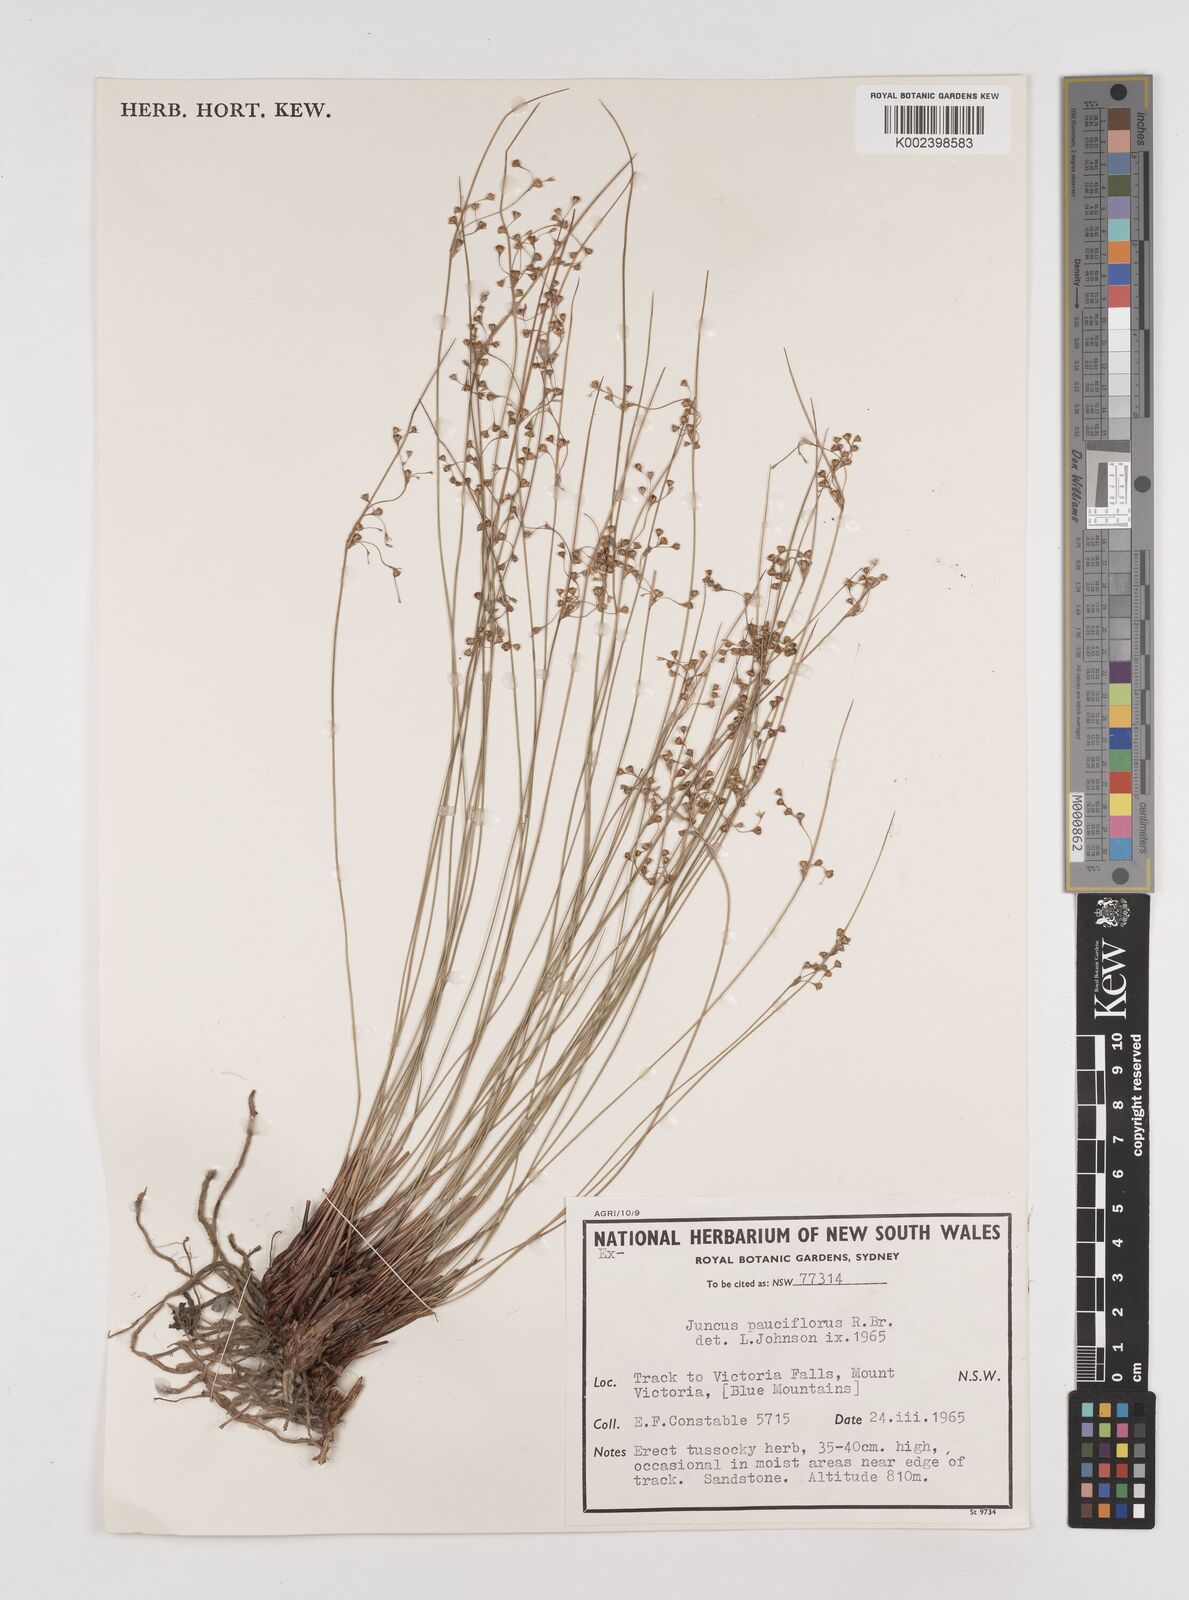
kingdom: Plantae
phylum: Tracheophyta
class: Liliopsida
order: Poales
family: Juncaceae
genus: Juncus
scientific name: Juncus pauciflorus
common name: Loose-flowered rush
